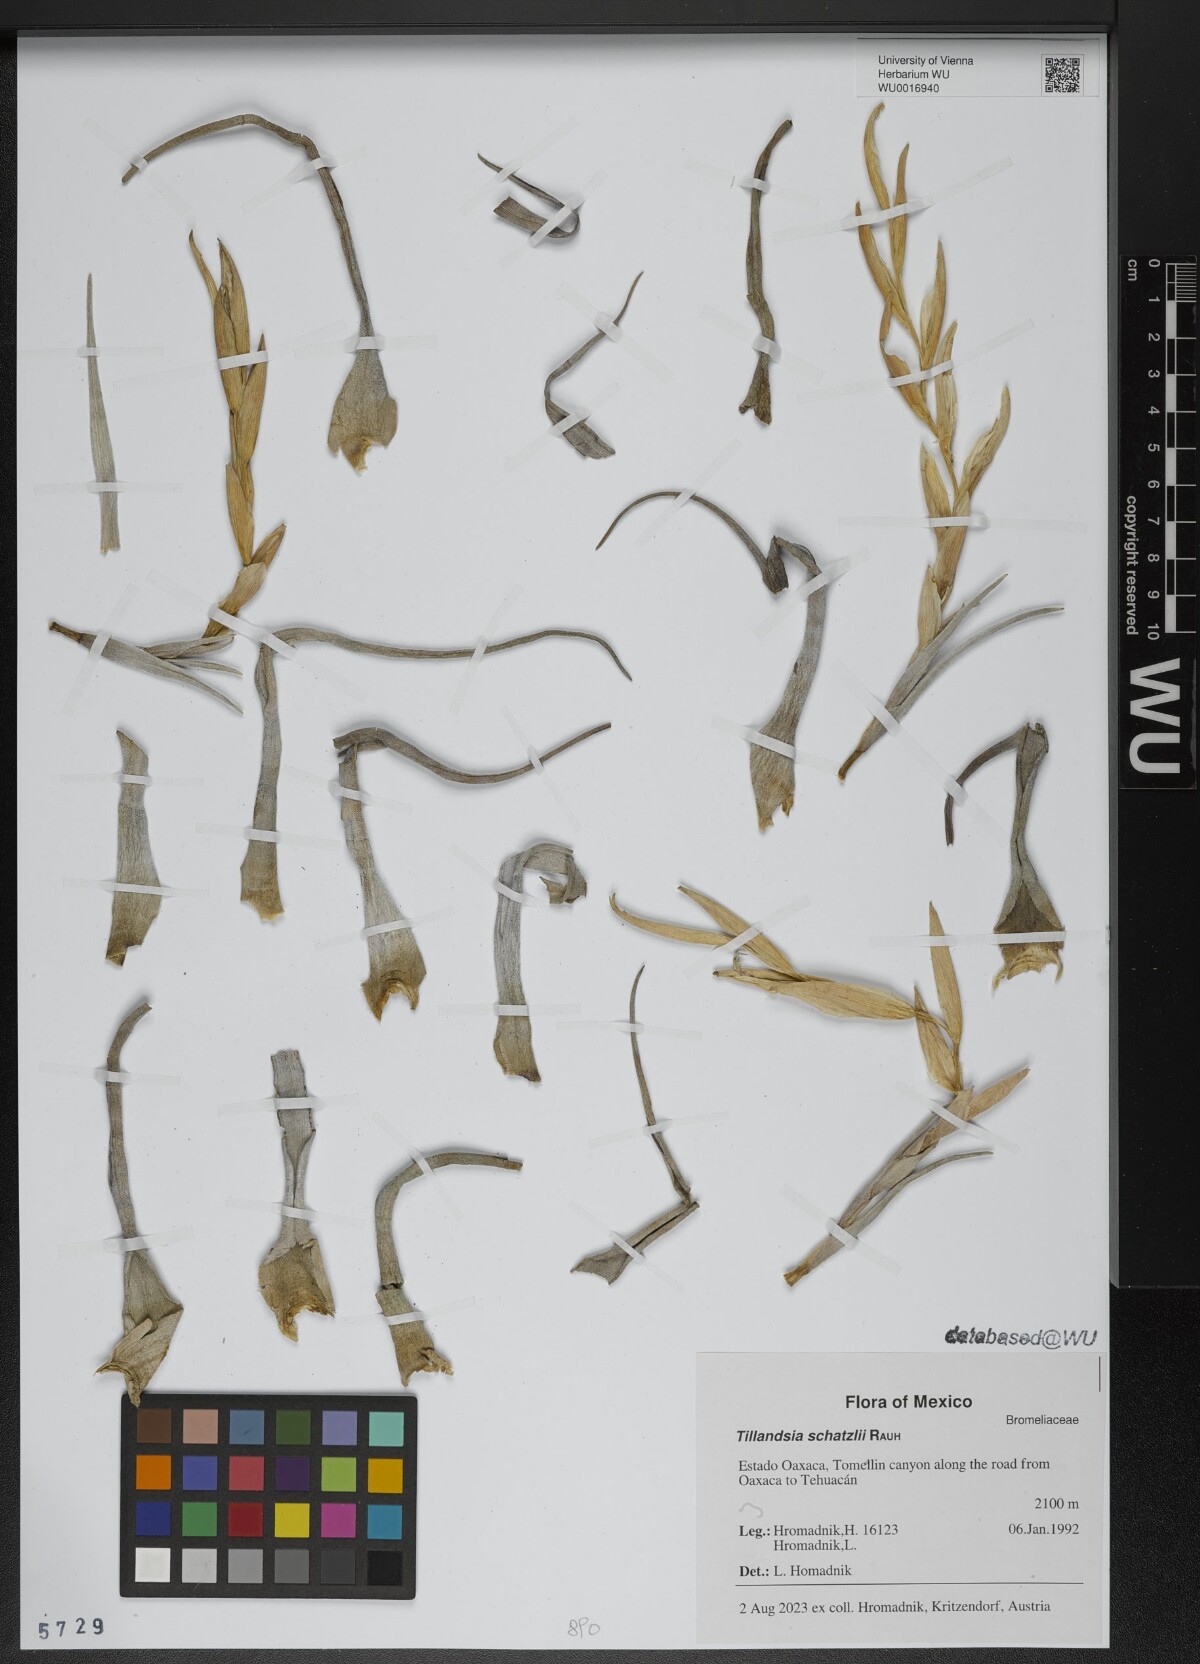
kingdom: Plantae
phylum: Tracheophyta
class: Liliopsida
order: Poales
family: Bromeliaceae
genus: Tillandsia
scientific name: Tillandsia schatzlii
